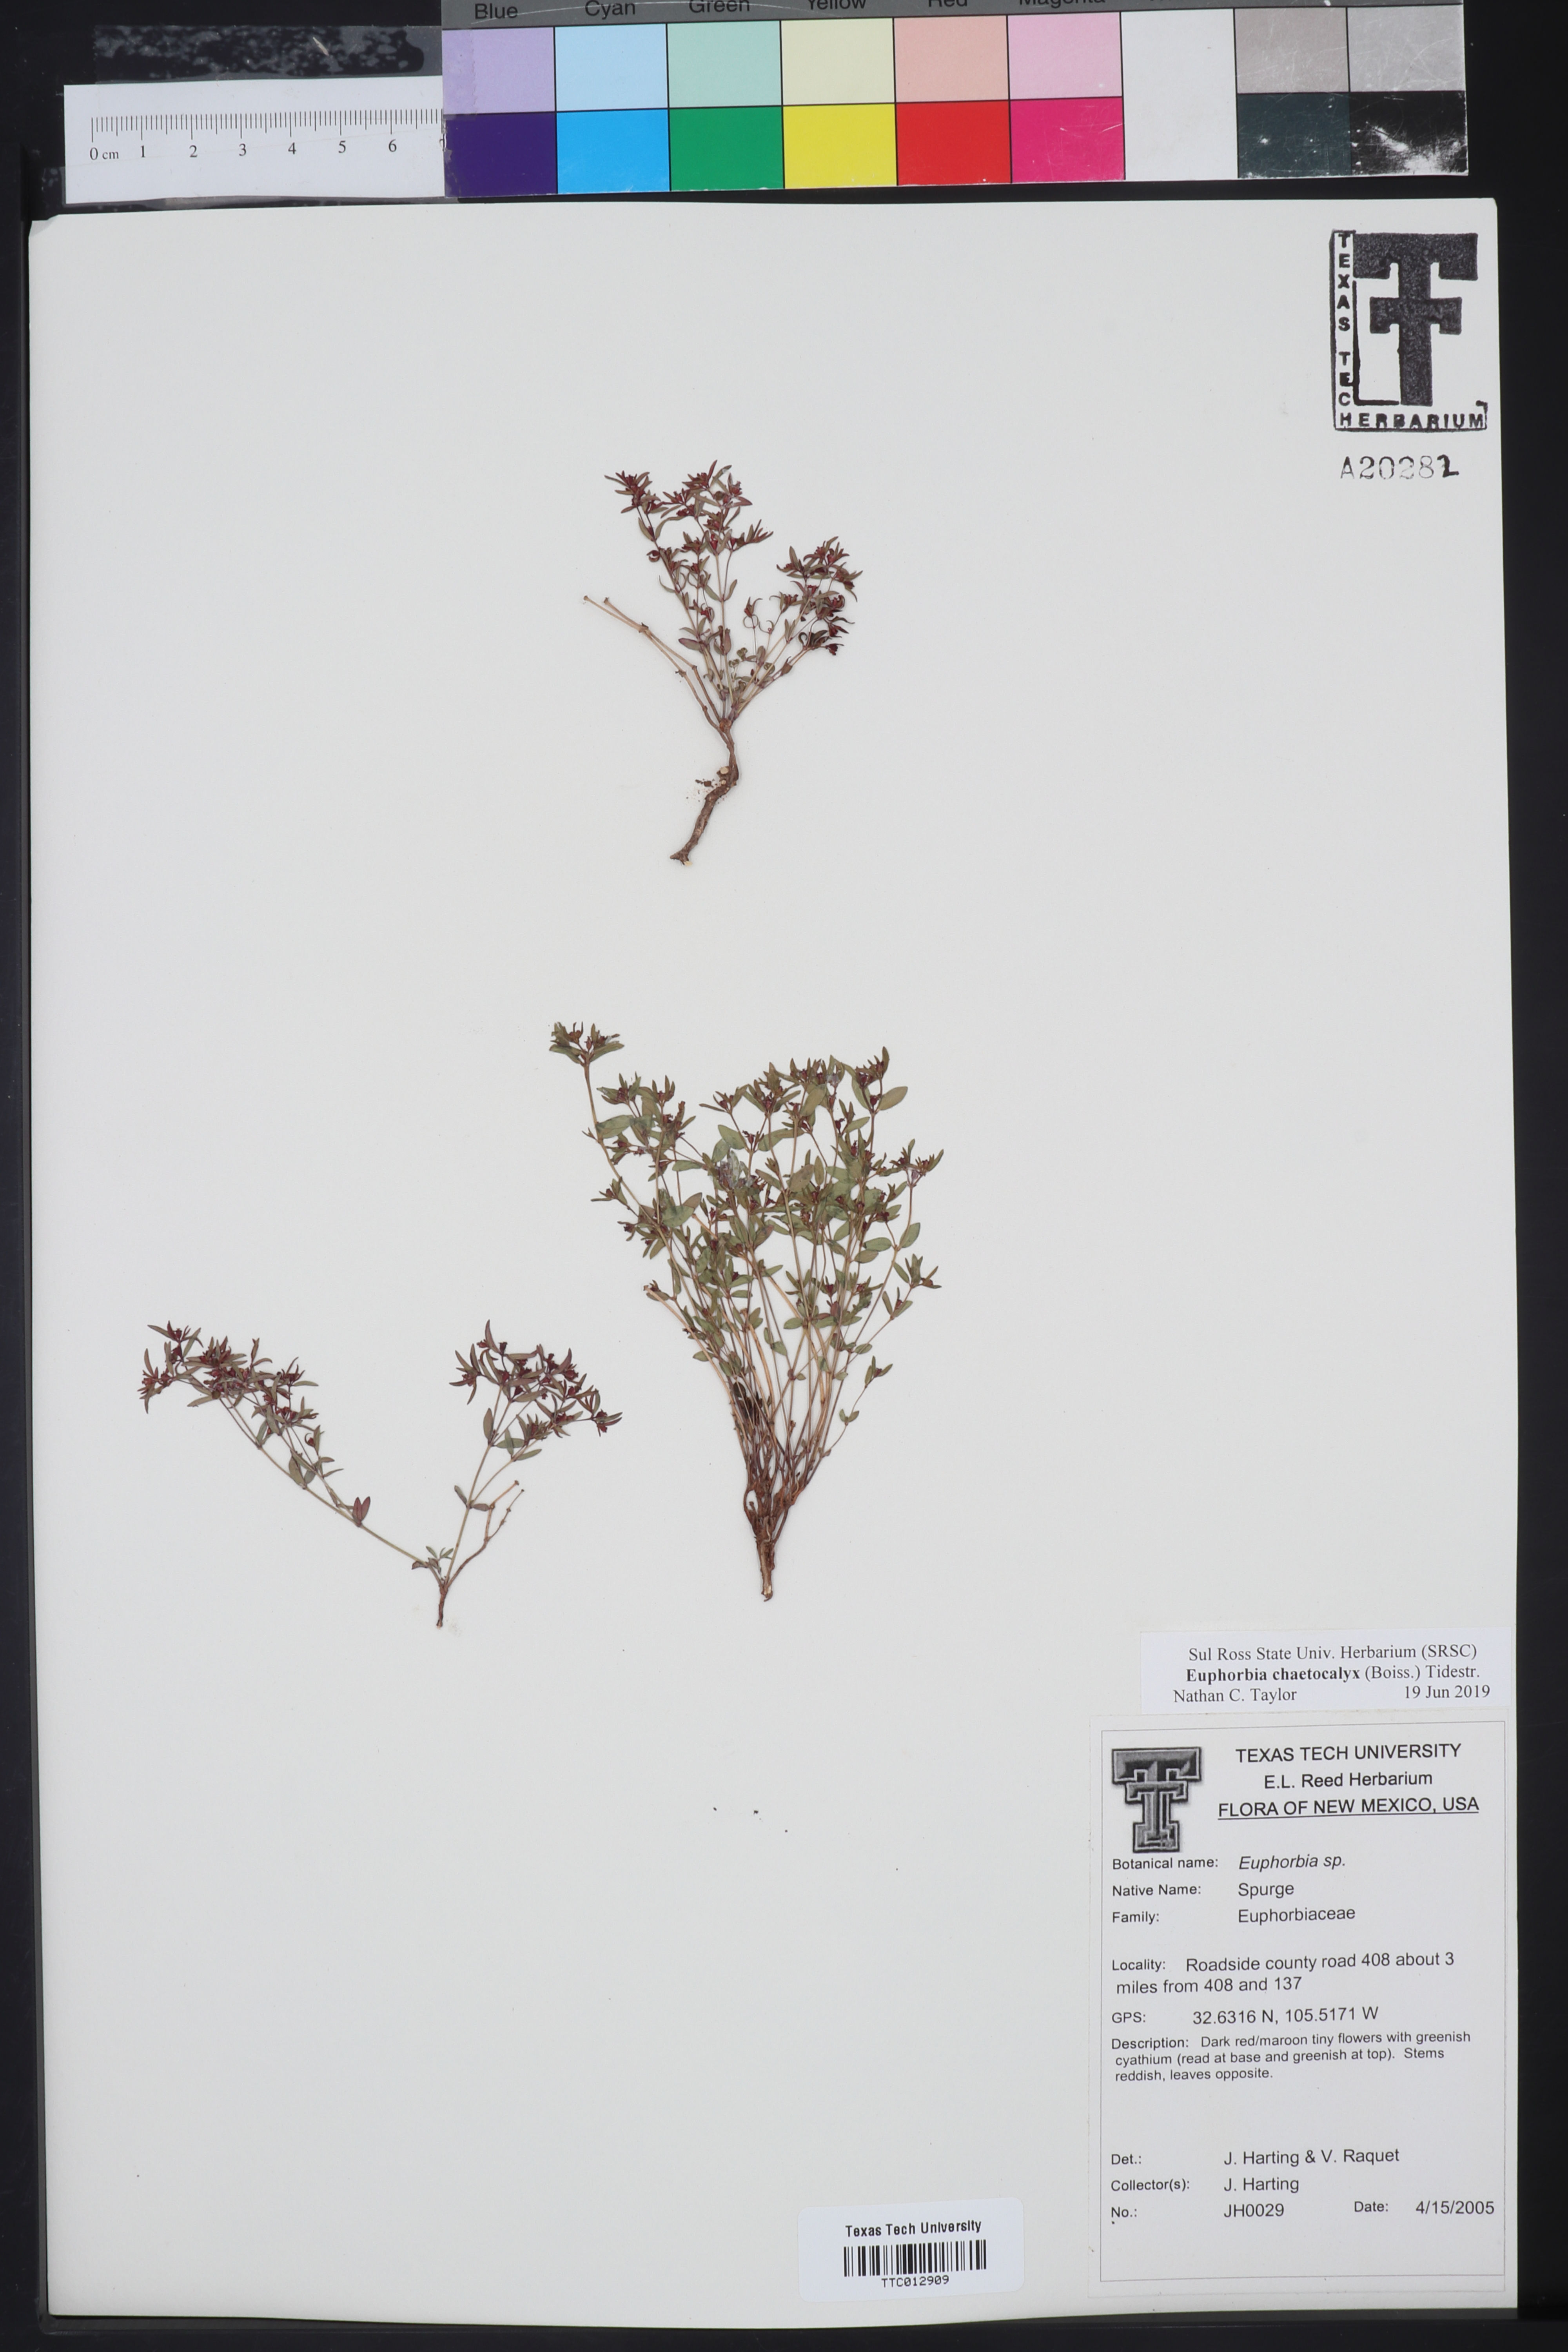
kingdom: Plantae
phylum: Tracheophyta
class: Magnoliopsida
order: Malpighiales
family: Euphorbiaceae
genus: Euphorbia
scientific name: Euphorbia chaetocalyx
